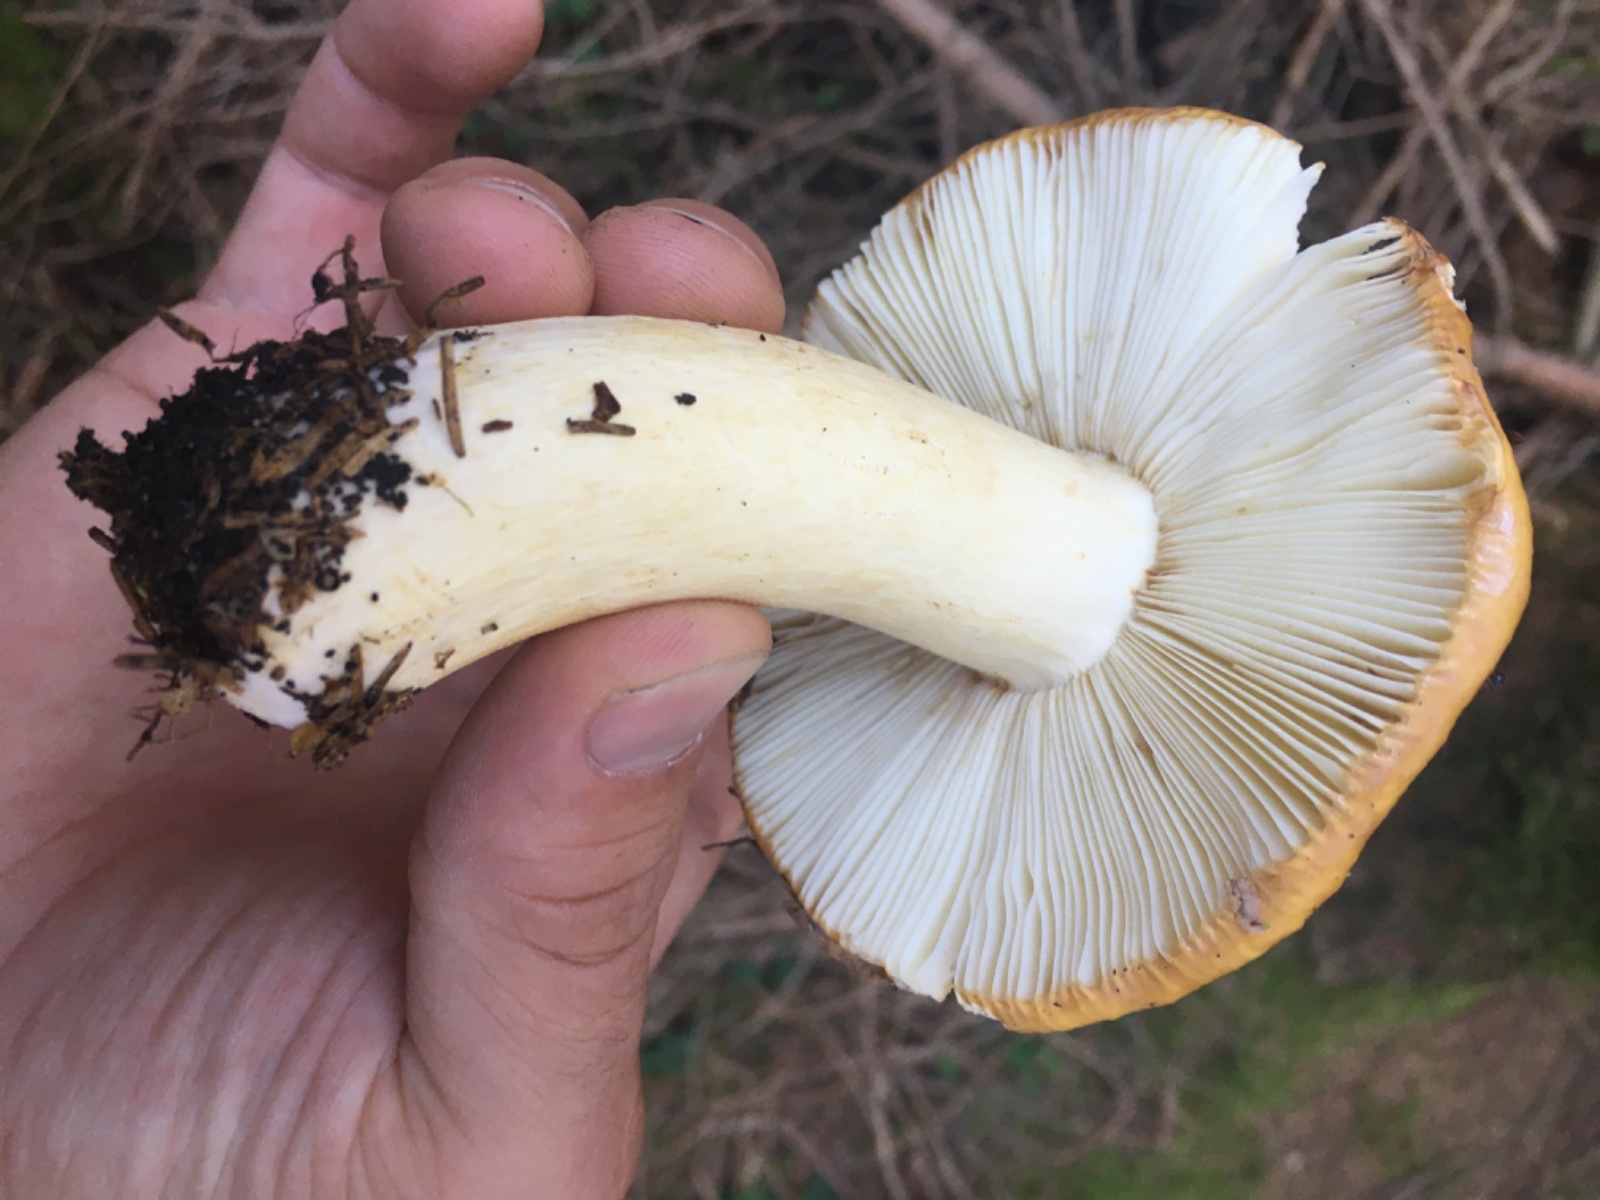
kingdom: Fungi
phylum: Basidiomycota
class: Agaricomycetes
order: Russulales
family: Russulaceae
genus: Russula
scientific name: Russula ochroleuca
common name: okkergul skørhat
